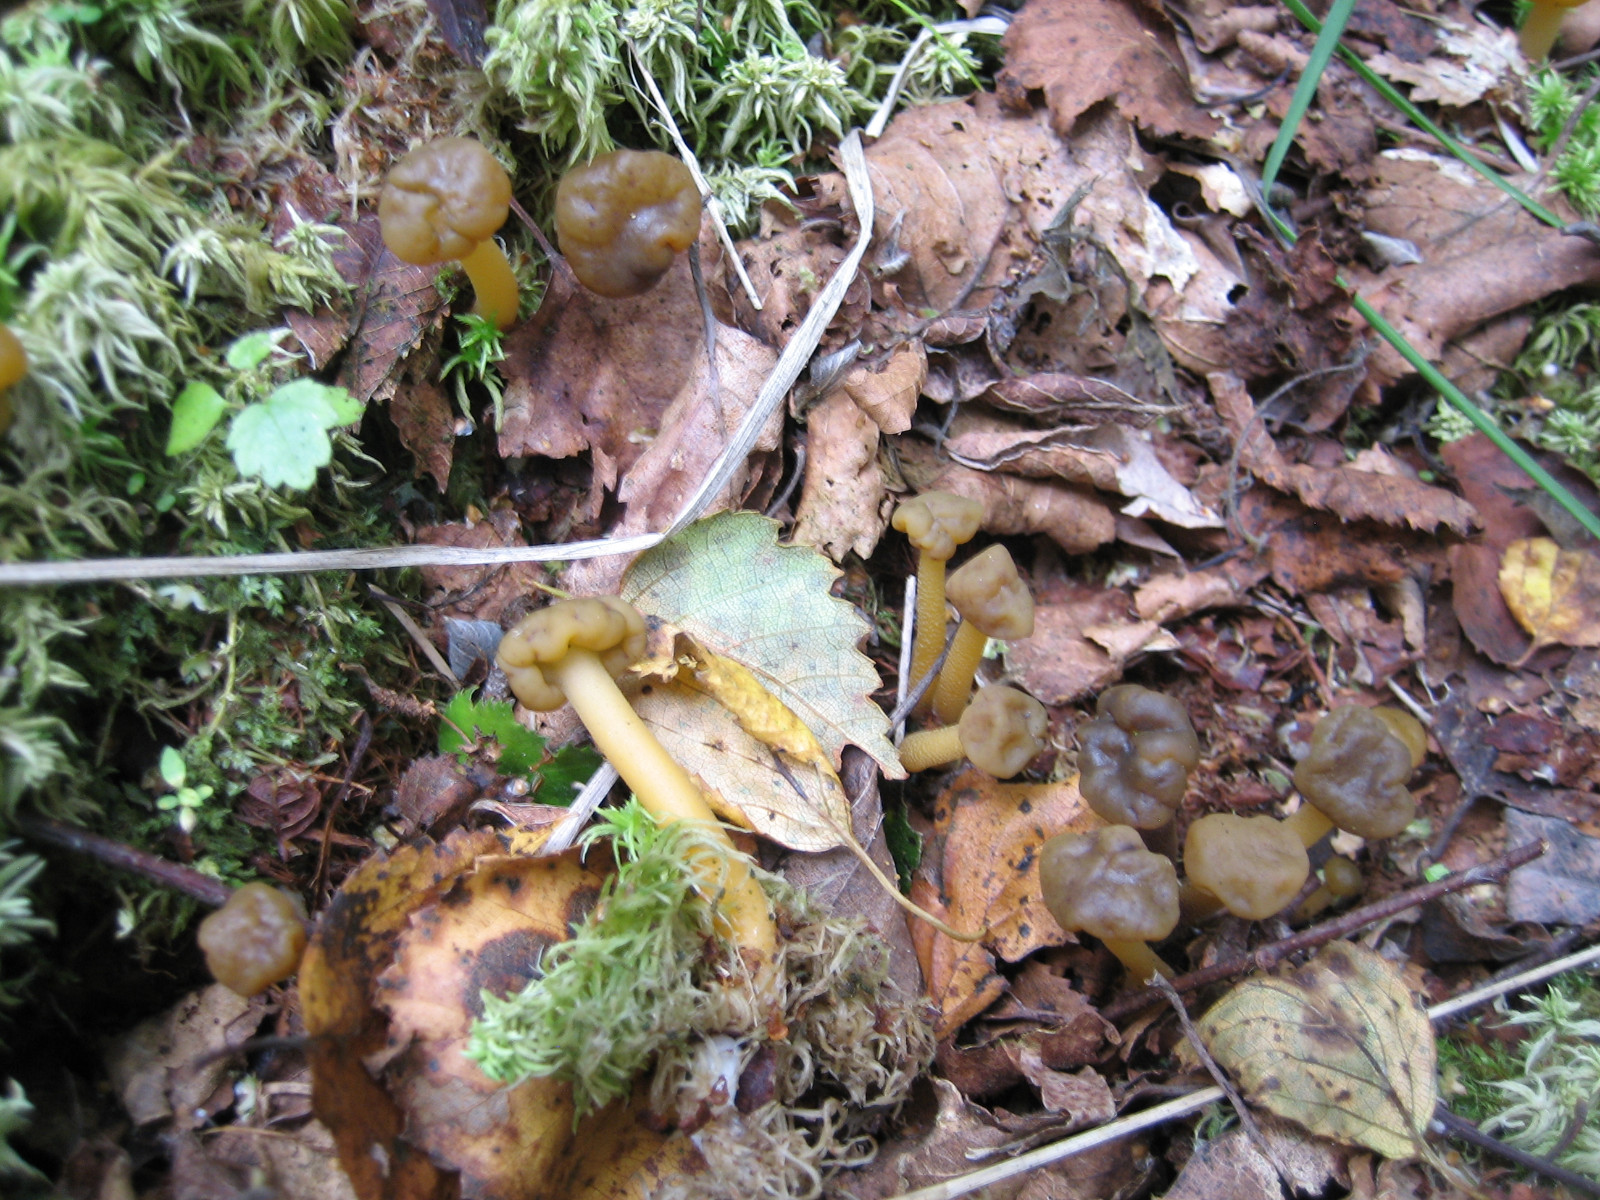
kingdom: Fungi
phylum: Ascomycota
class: Leotiomycetes
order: Leotiales
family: Leotiaceae
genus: Leotia
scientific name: Leotia lubrica
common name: ravsvamp
